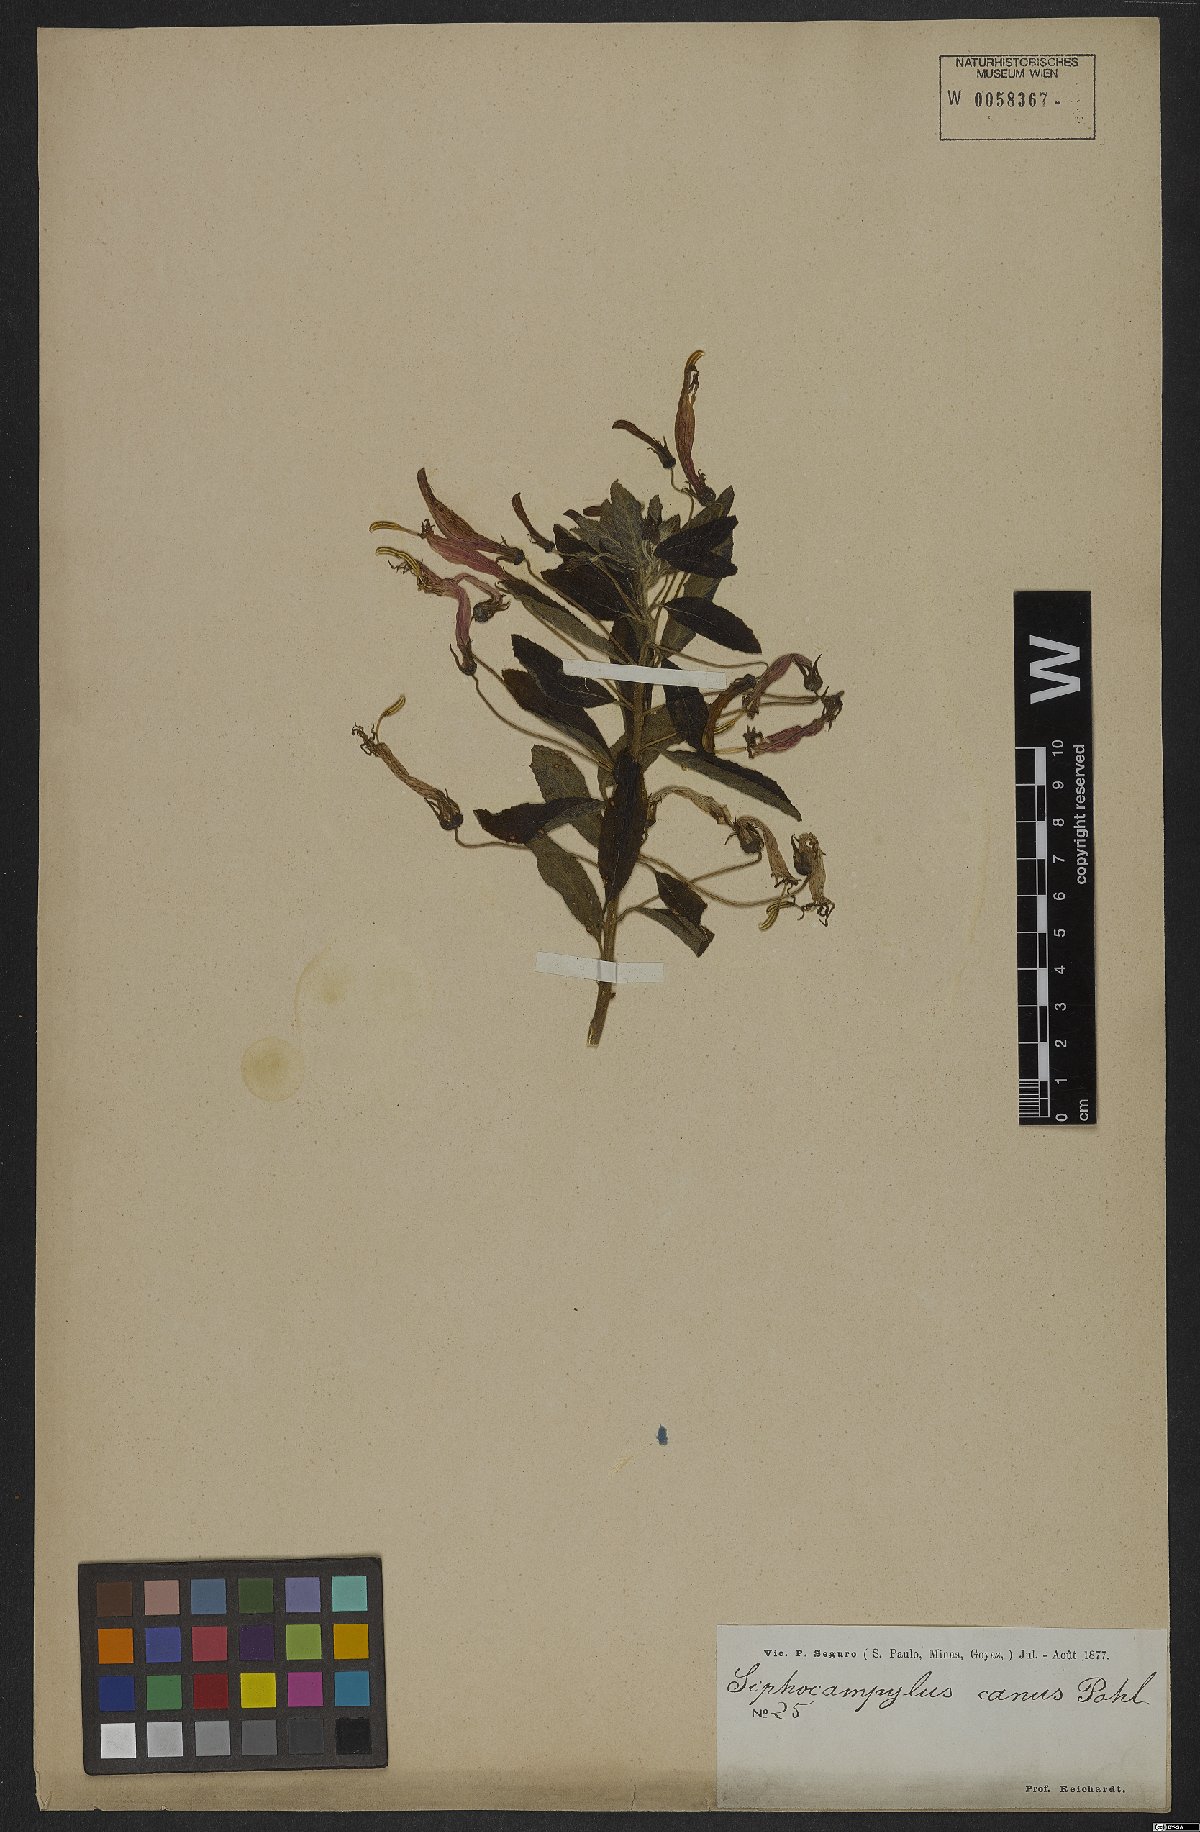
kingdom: Plantae
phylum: Tracheophyta
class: Magnoliopsida
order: Asterales
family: Campanulaceae
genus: Siphocampylus
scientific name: Siphocampylus macropodus
